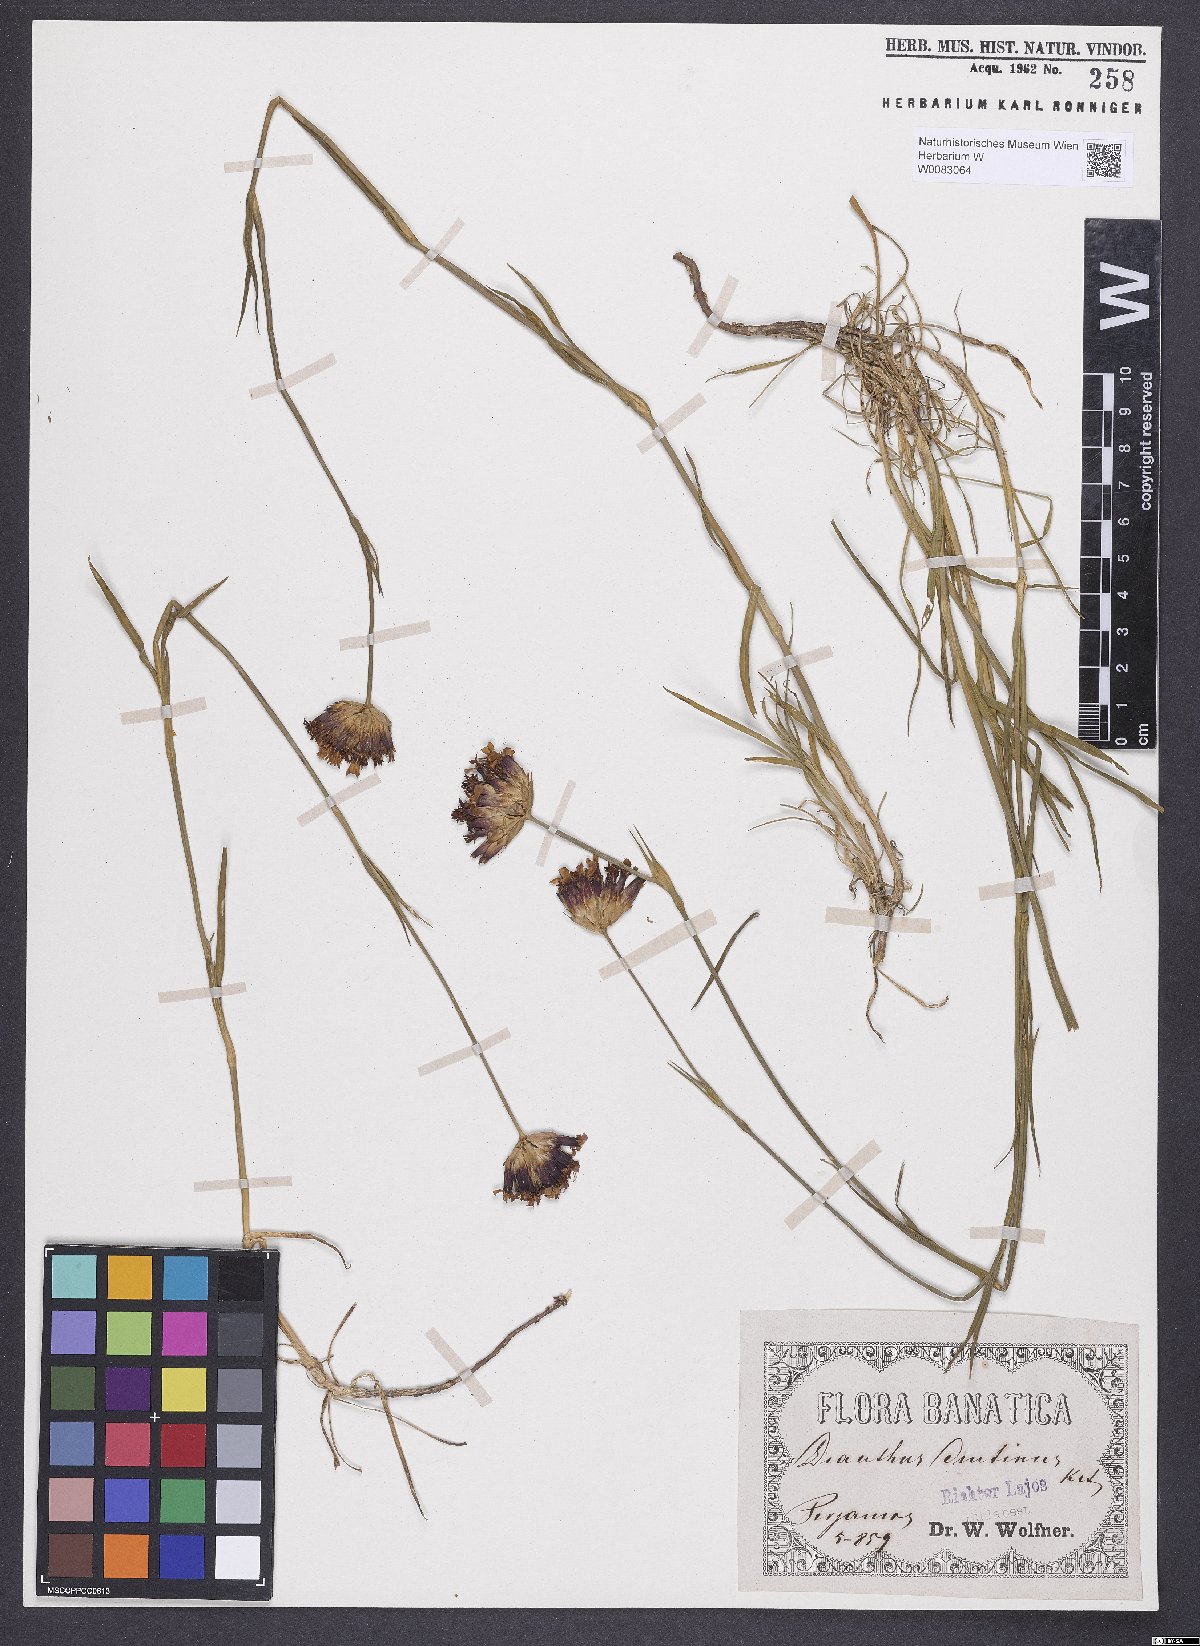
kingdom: Plantae
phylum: Tracheophyta
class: Magnoliopsida
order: Caryophyllales
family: Caryophyllaceae
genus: Dianthus
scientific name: Dianthus polymorphus
